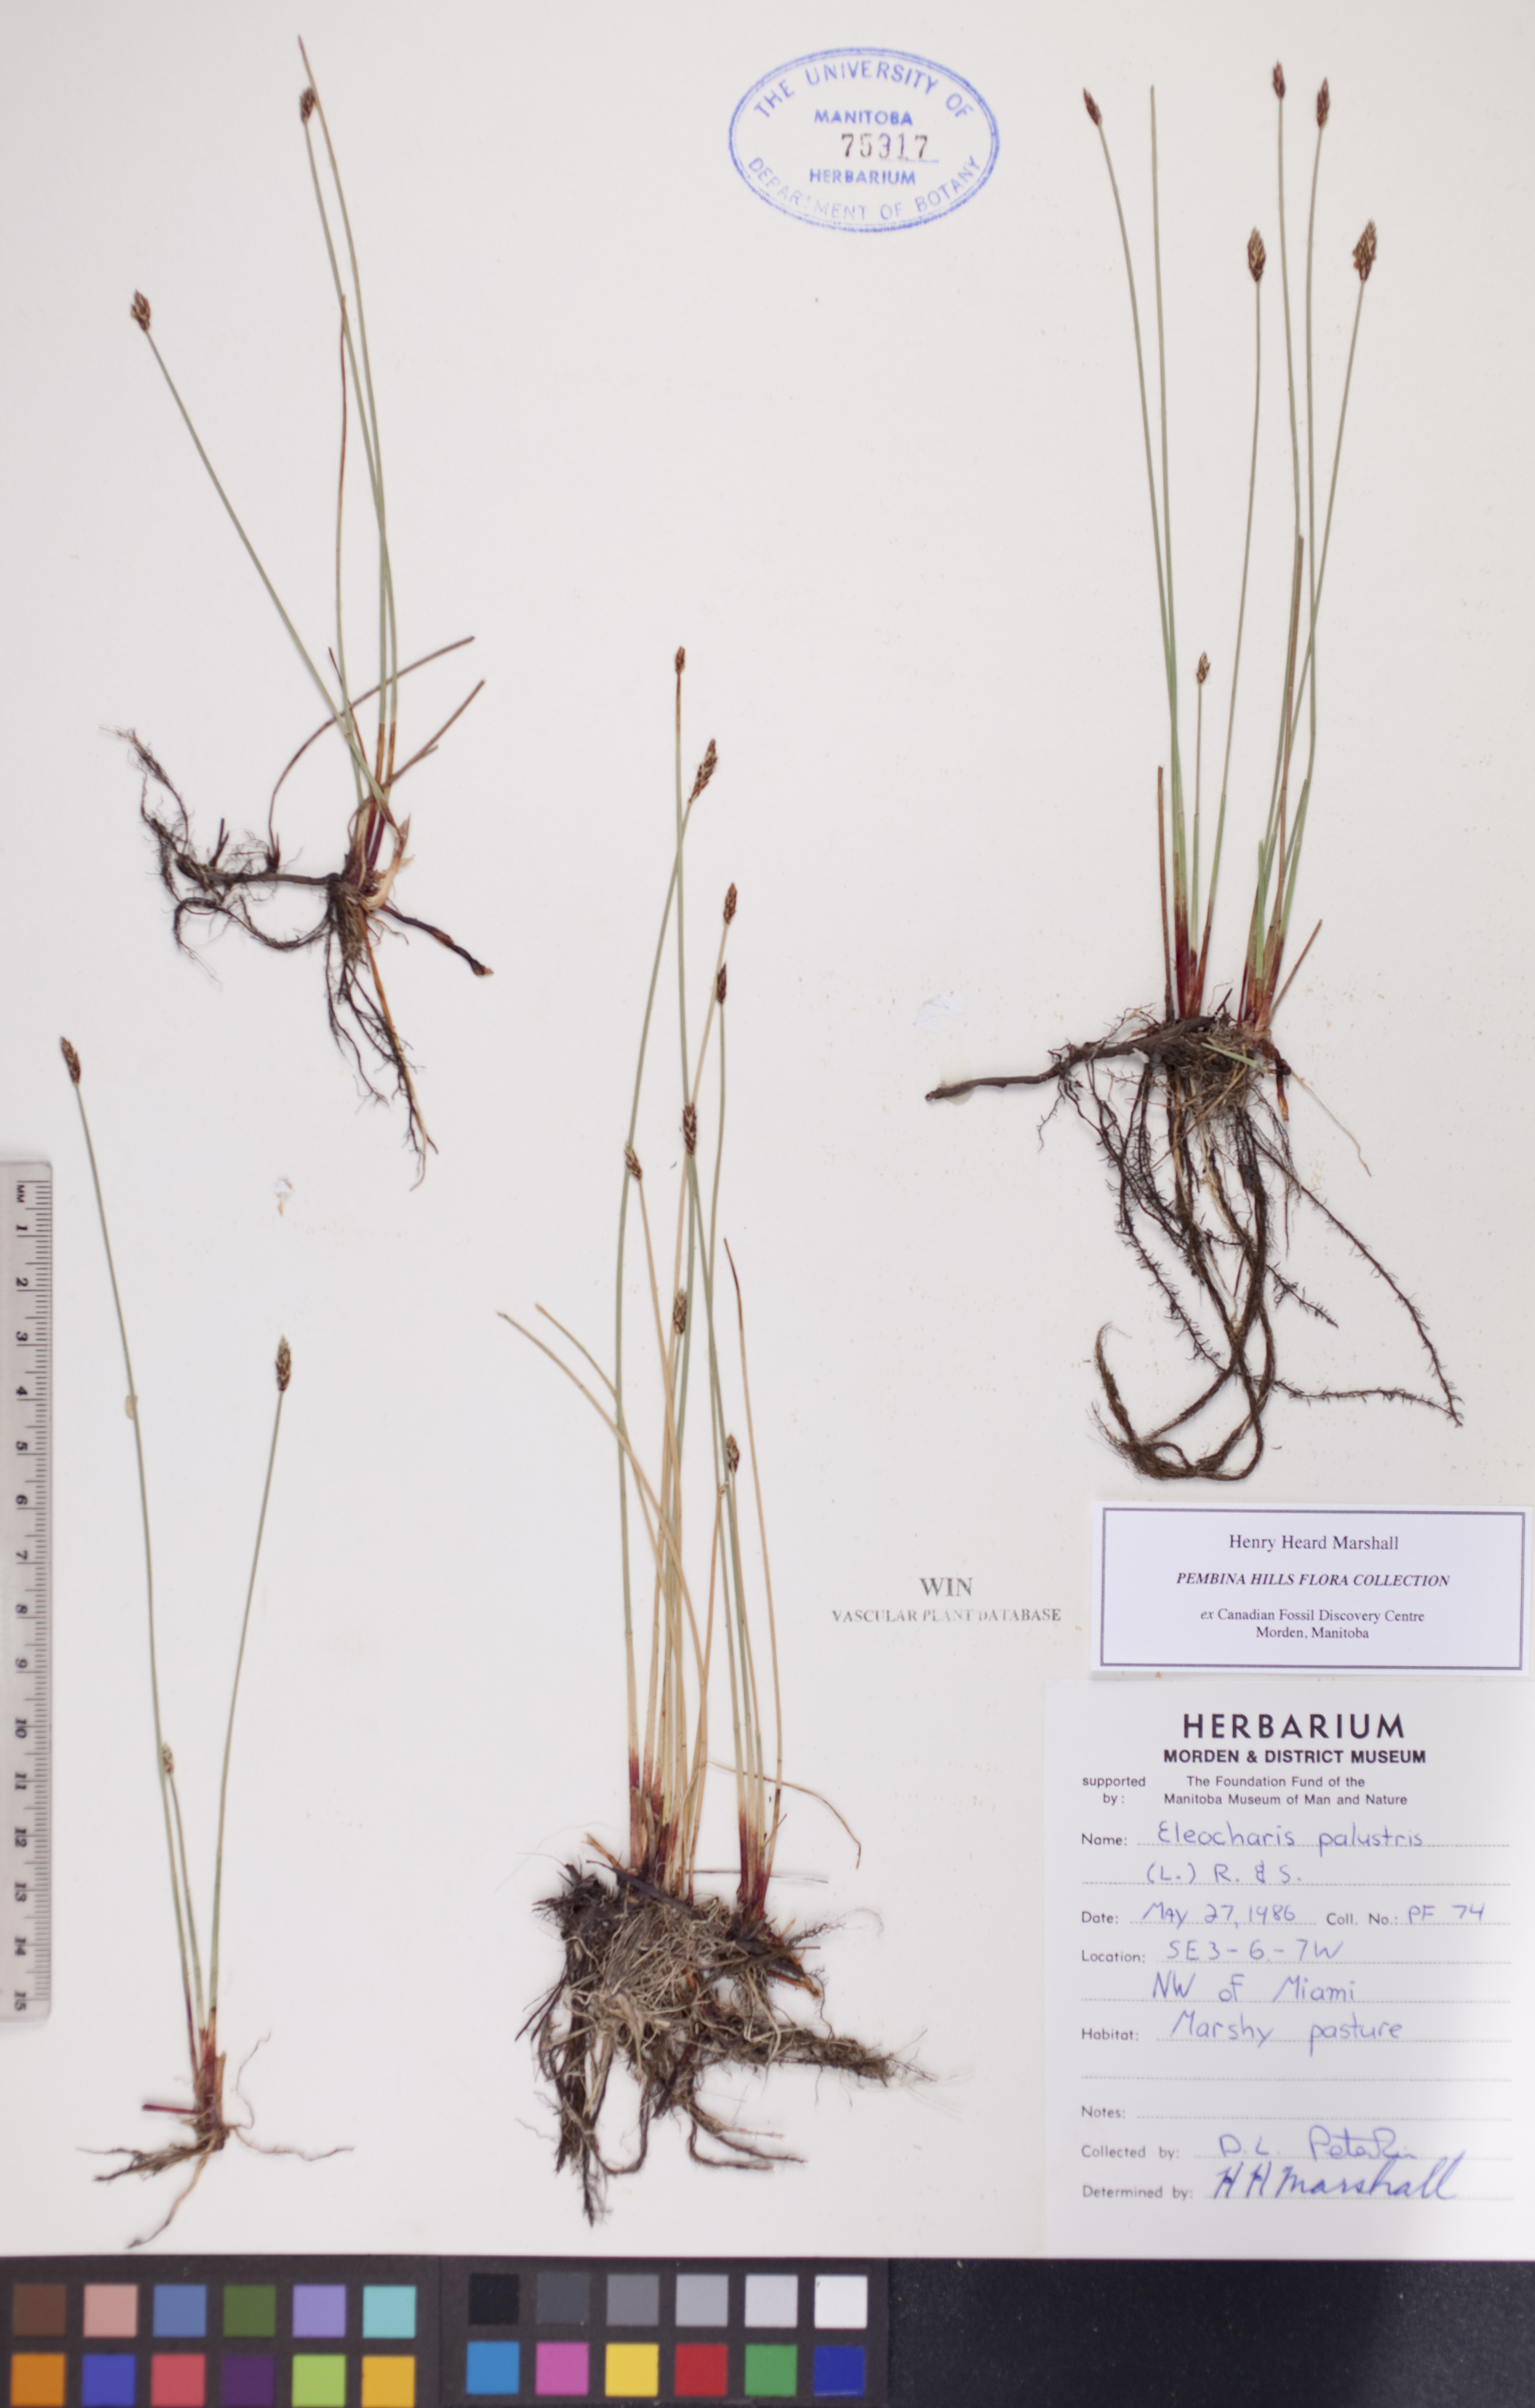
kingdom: Plantae
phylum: Tracheophyta
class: Liliopsida
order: Poales
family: Cyperaceae
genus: Eleocharis
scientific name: Eleocharis palustris
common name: Common spike-rush
